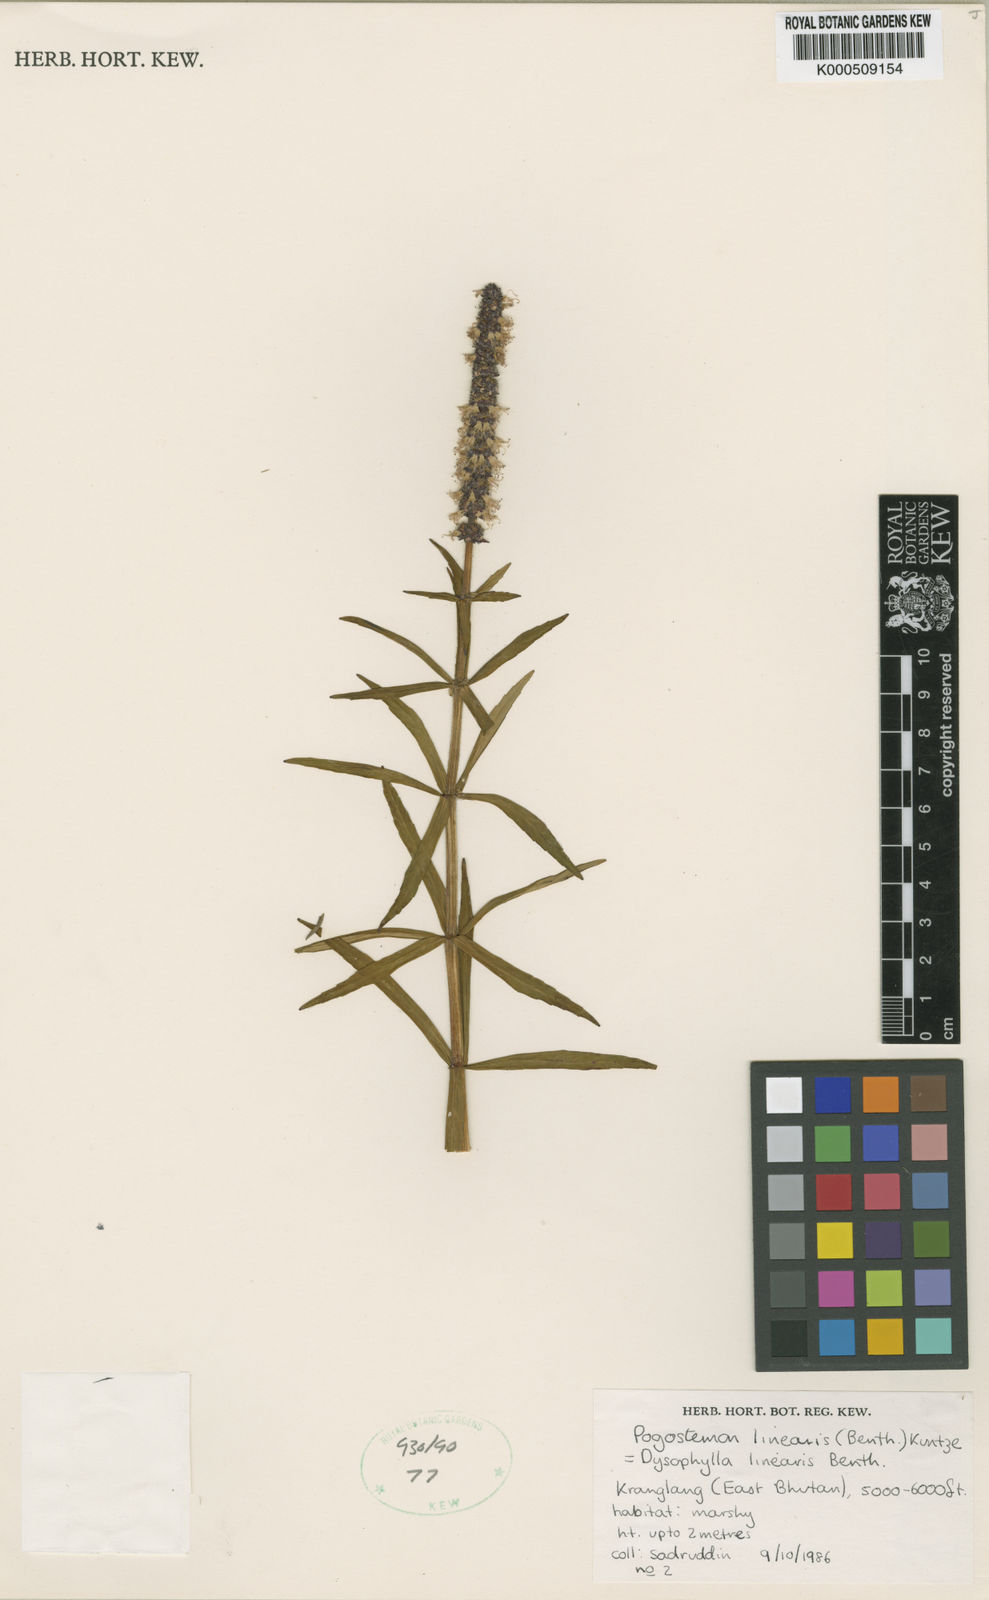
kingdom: Plantae
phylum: Tracheophyta
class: Magnoliopsida
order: Lamiales
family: Lamiaceae
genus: Pogostemon
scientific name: Pogostemon linearis
